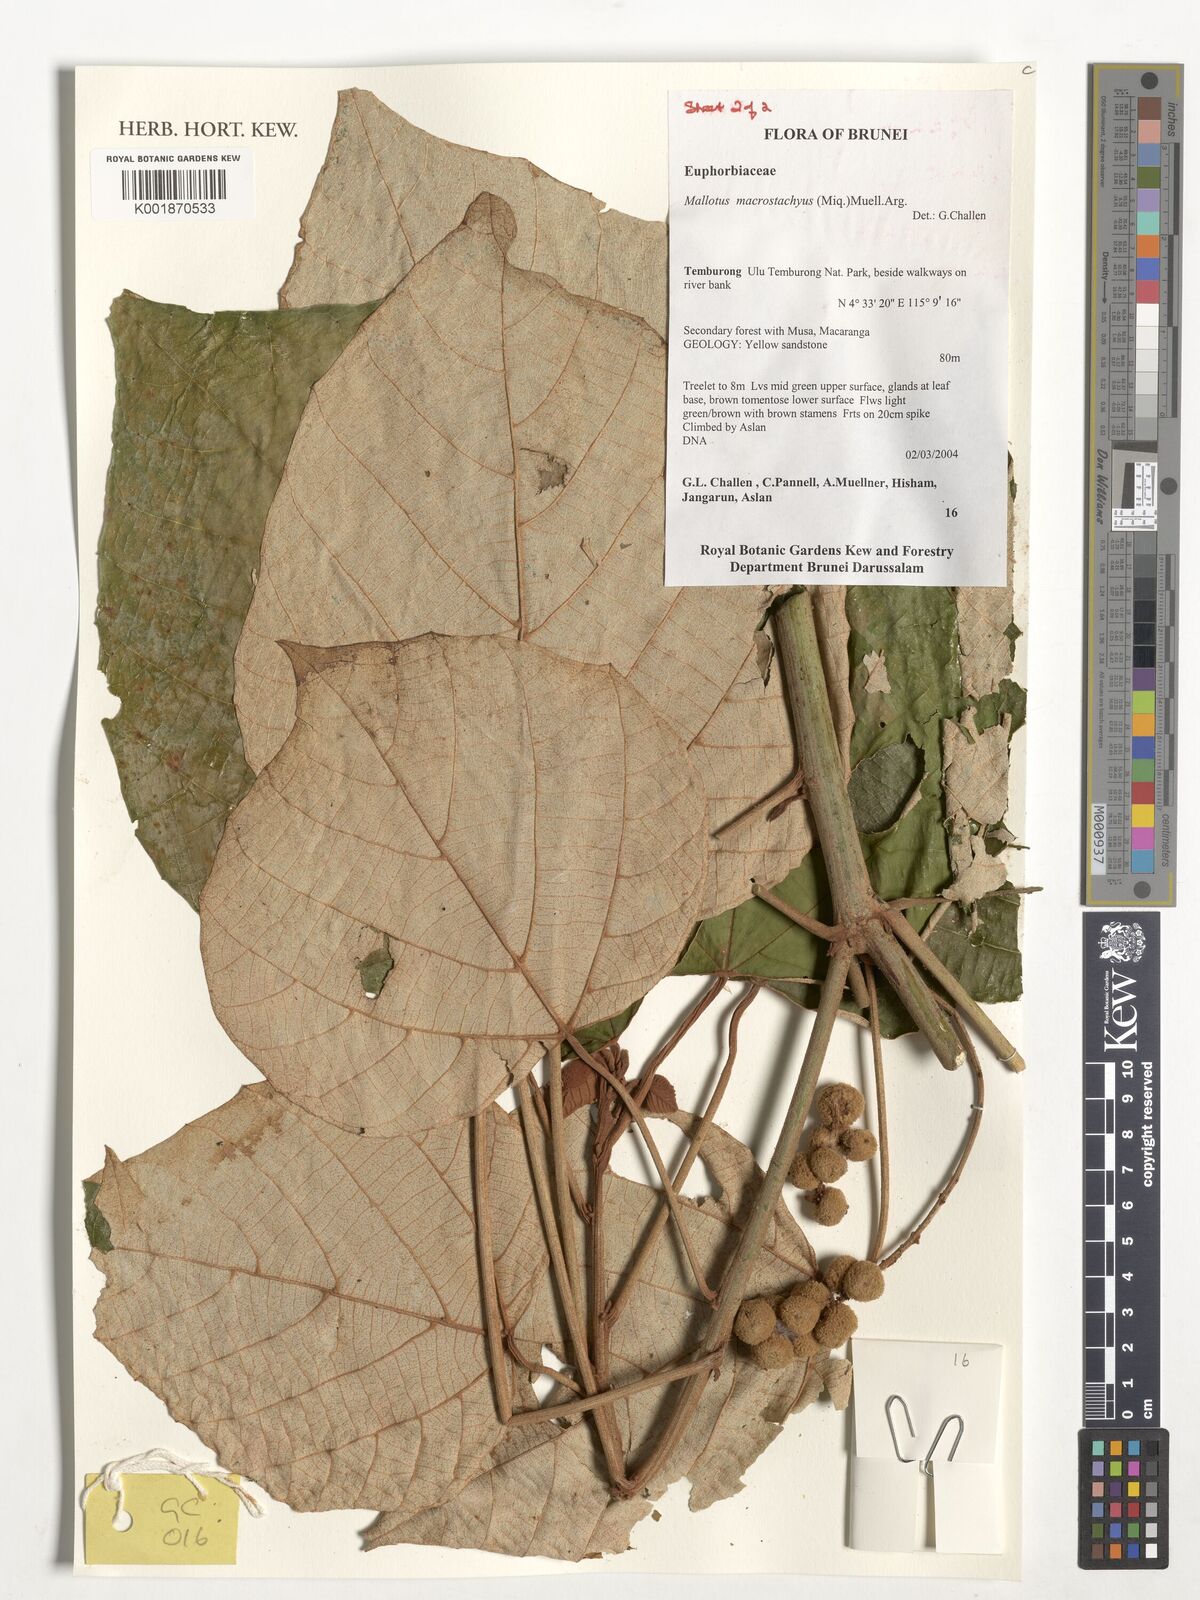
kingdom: Plantae
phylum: Tracheophyta
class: Magnoliopsida
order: Malpighiales
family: Euphorbiaceae
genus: Mallotus
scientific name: Mallotus macrostachyus
